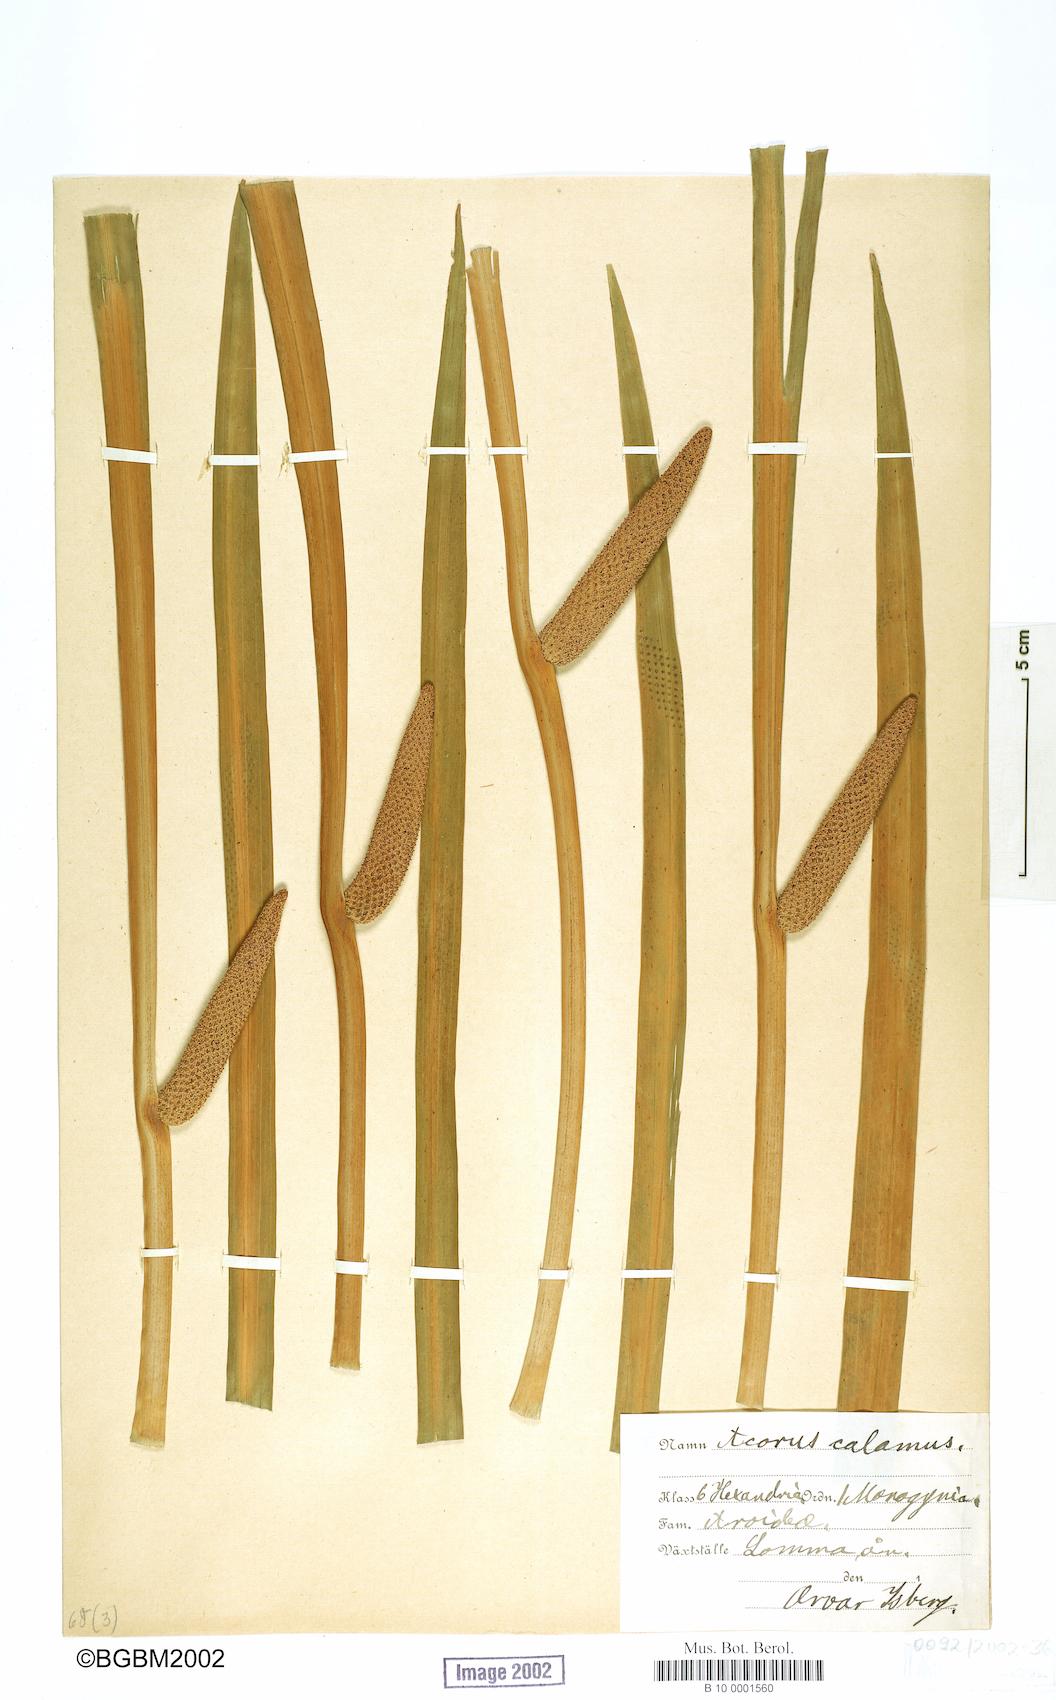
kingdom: Plantae
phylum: Tracheophyta
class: Liliopsida
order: Acorales
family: Acoraceae
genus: Acorus
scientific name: Acorus calamus
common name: Sweet-flag
